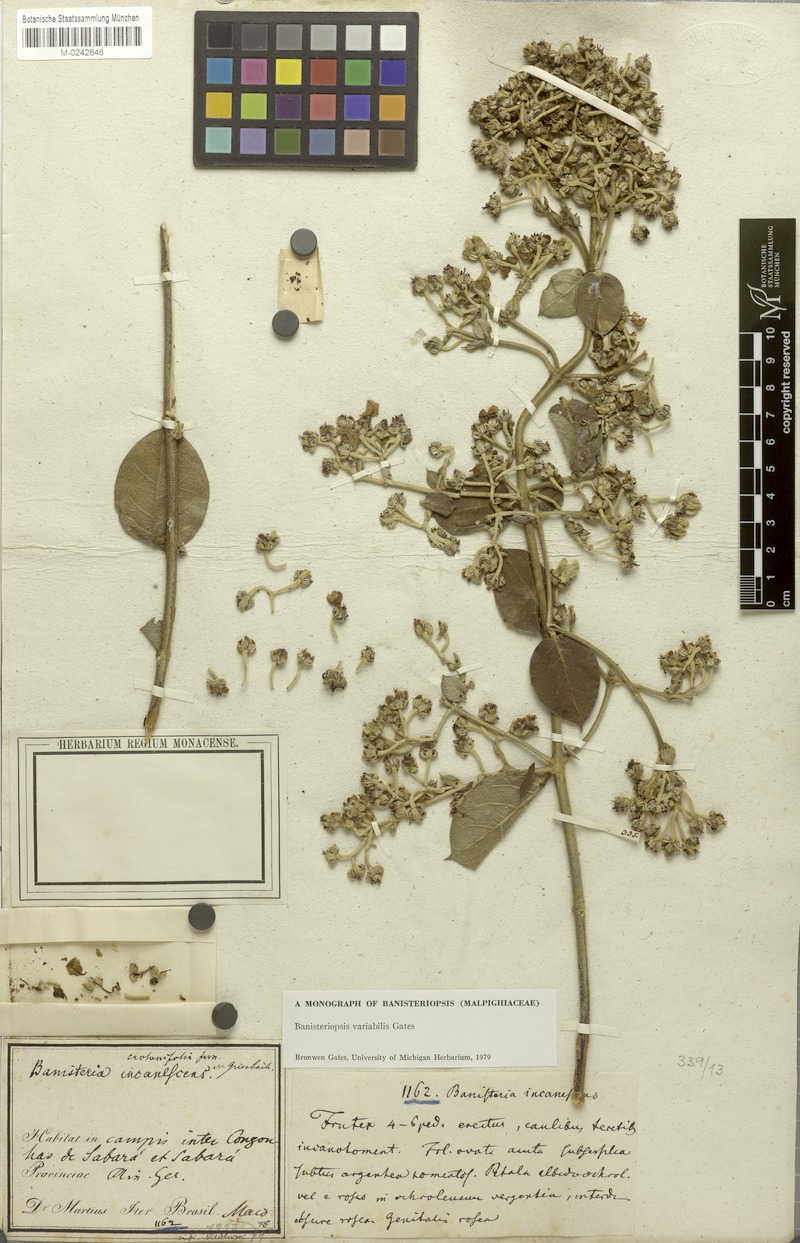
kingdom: Plantae
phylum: Tracheophyta
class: Magnoliopsida
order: Malpighiales
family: Malpighiaceae
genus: Banisteriopsis
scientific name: Banisteriopsis variabilis
